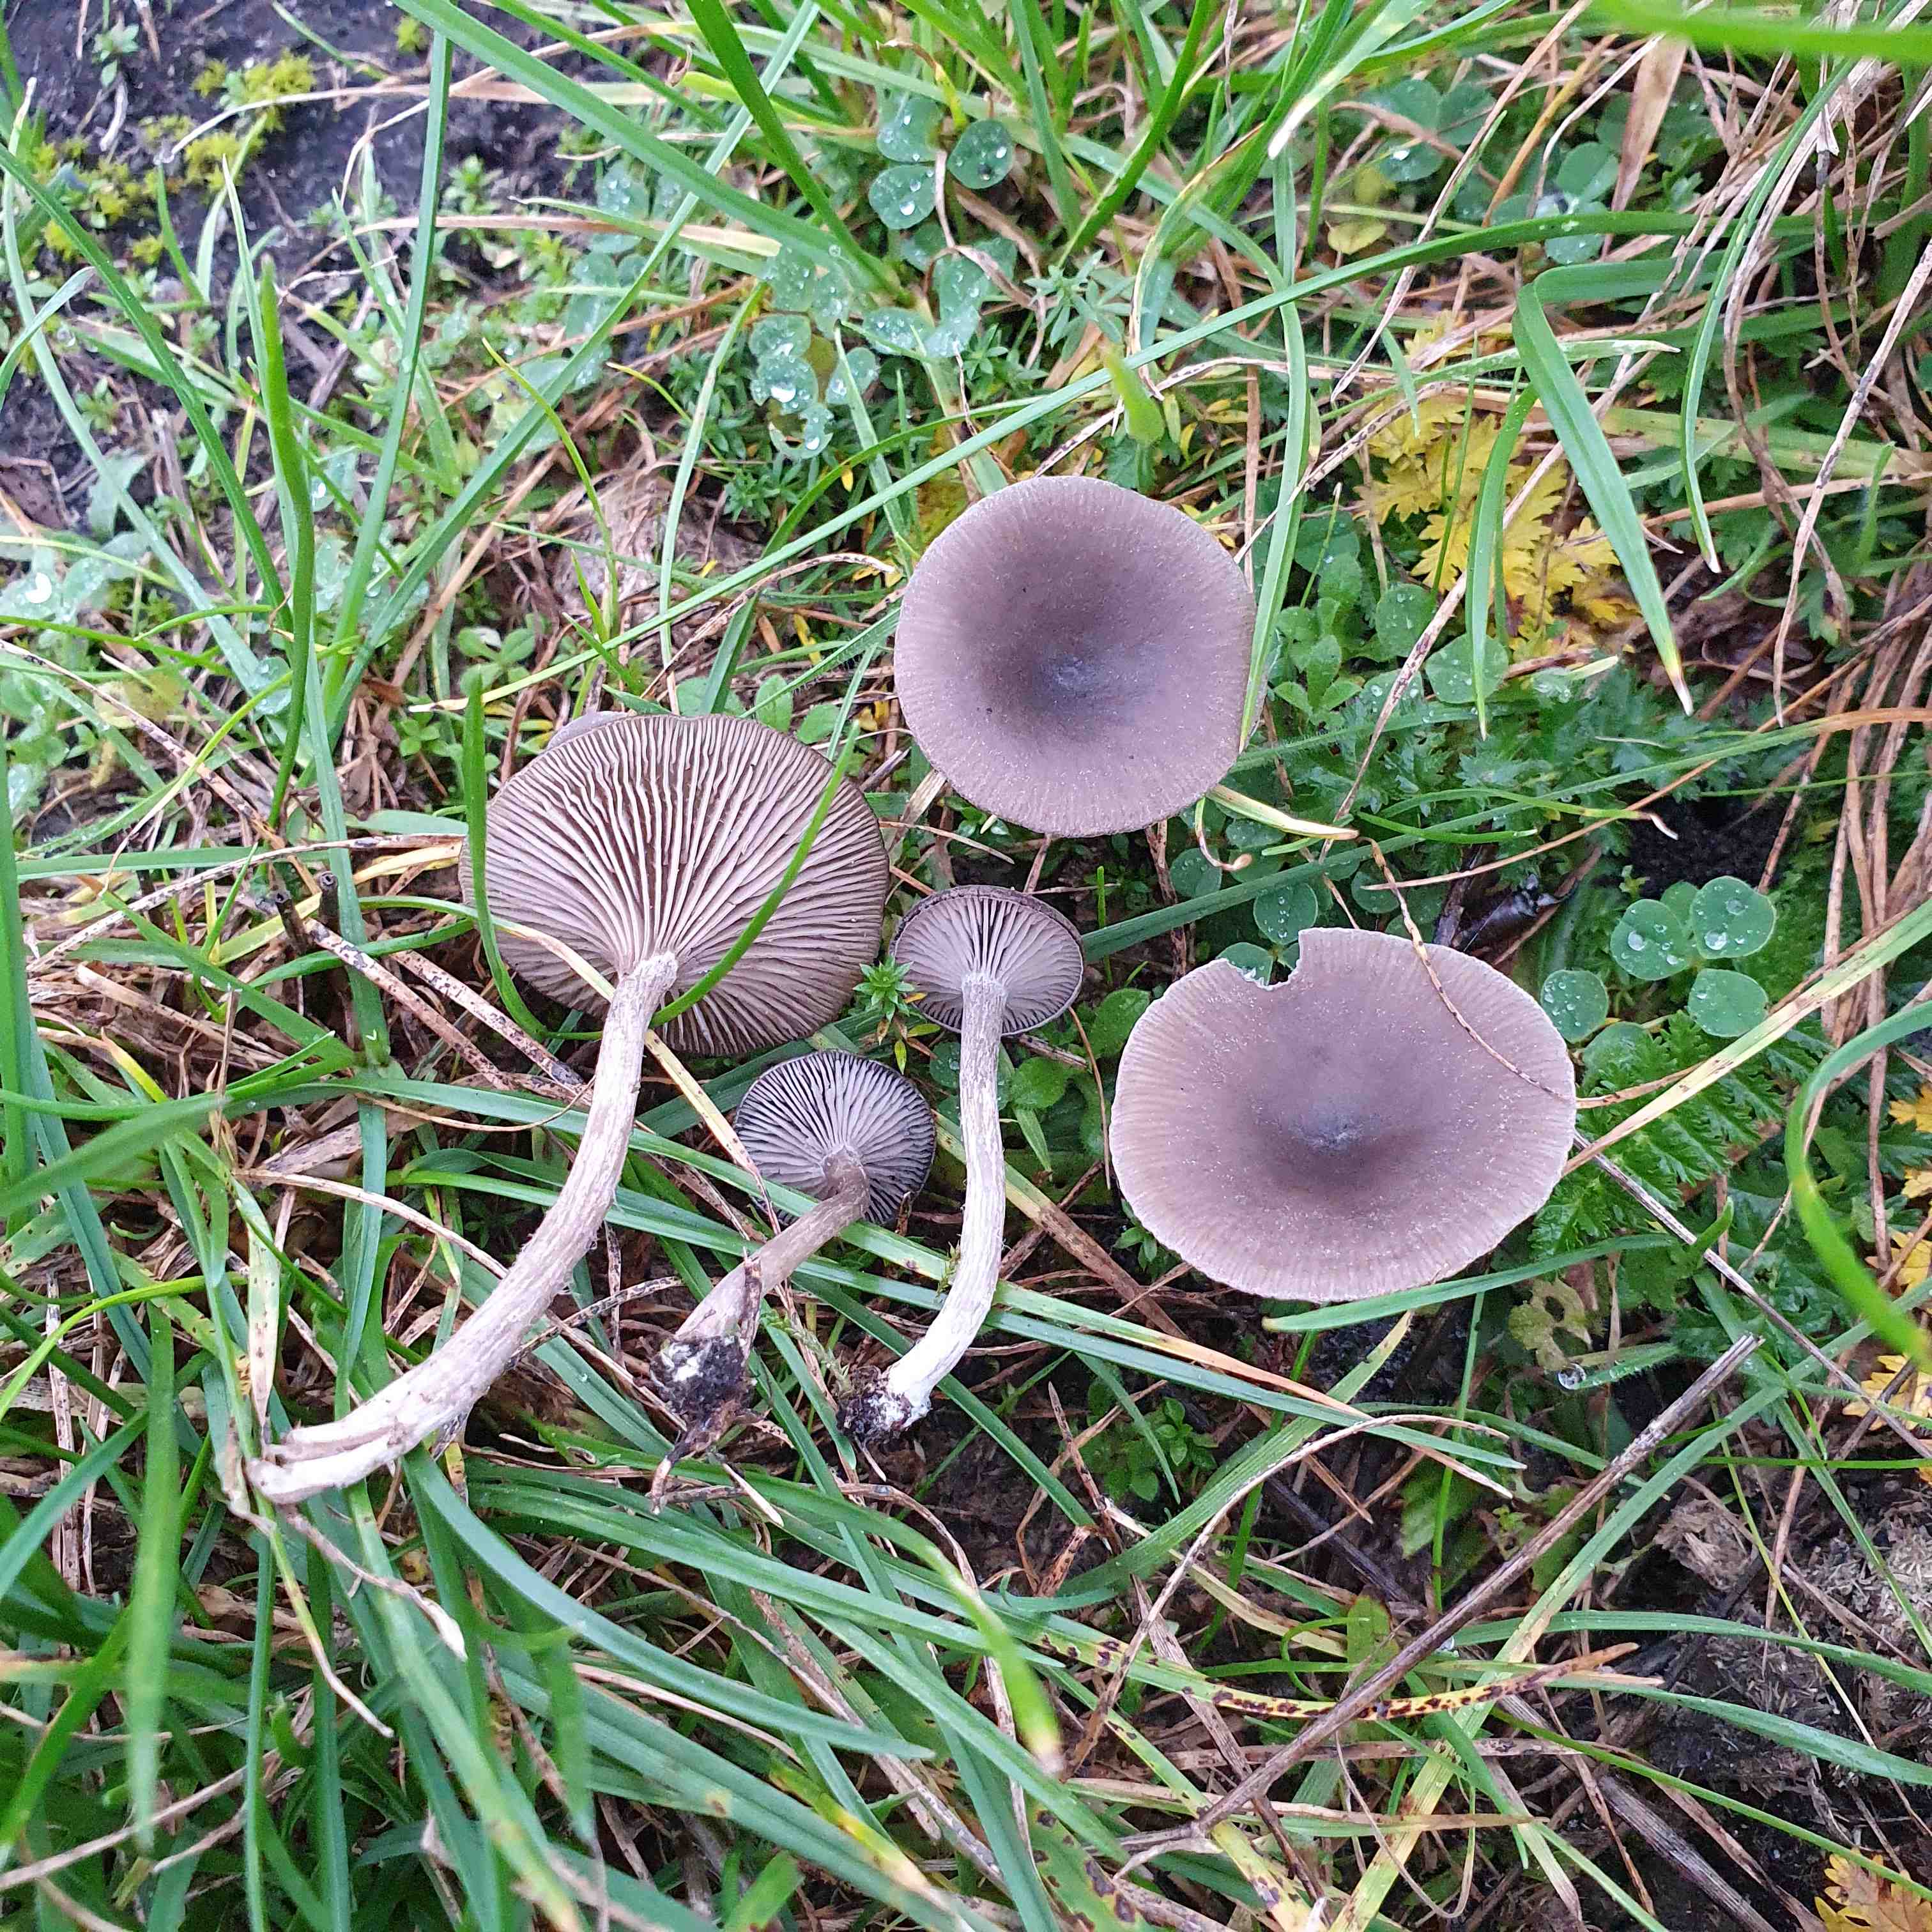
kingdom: Fungi
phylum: Basidiomycota
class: Agaricomycetes
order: Agaricales
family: Pseudoclitocybaceae
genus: Pseudoclitocybe
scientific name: Pseudoclitocybe expallens
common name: lille bægertragthat
